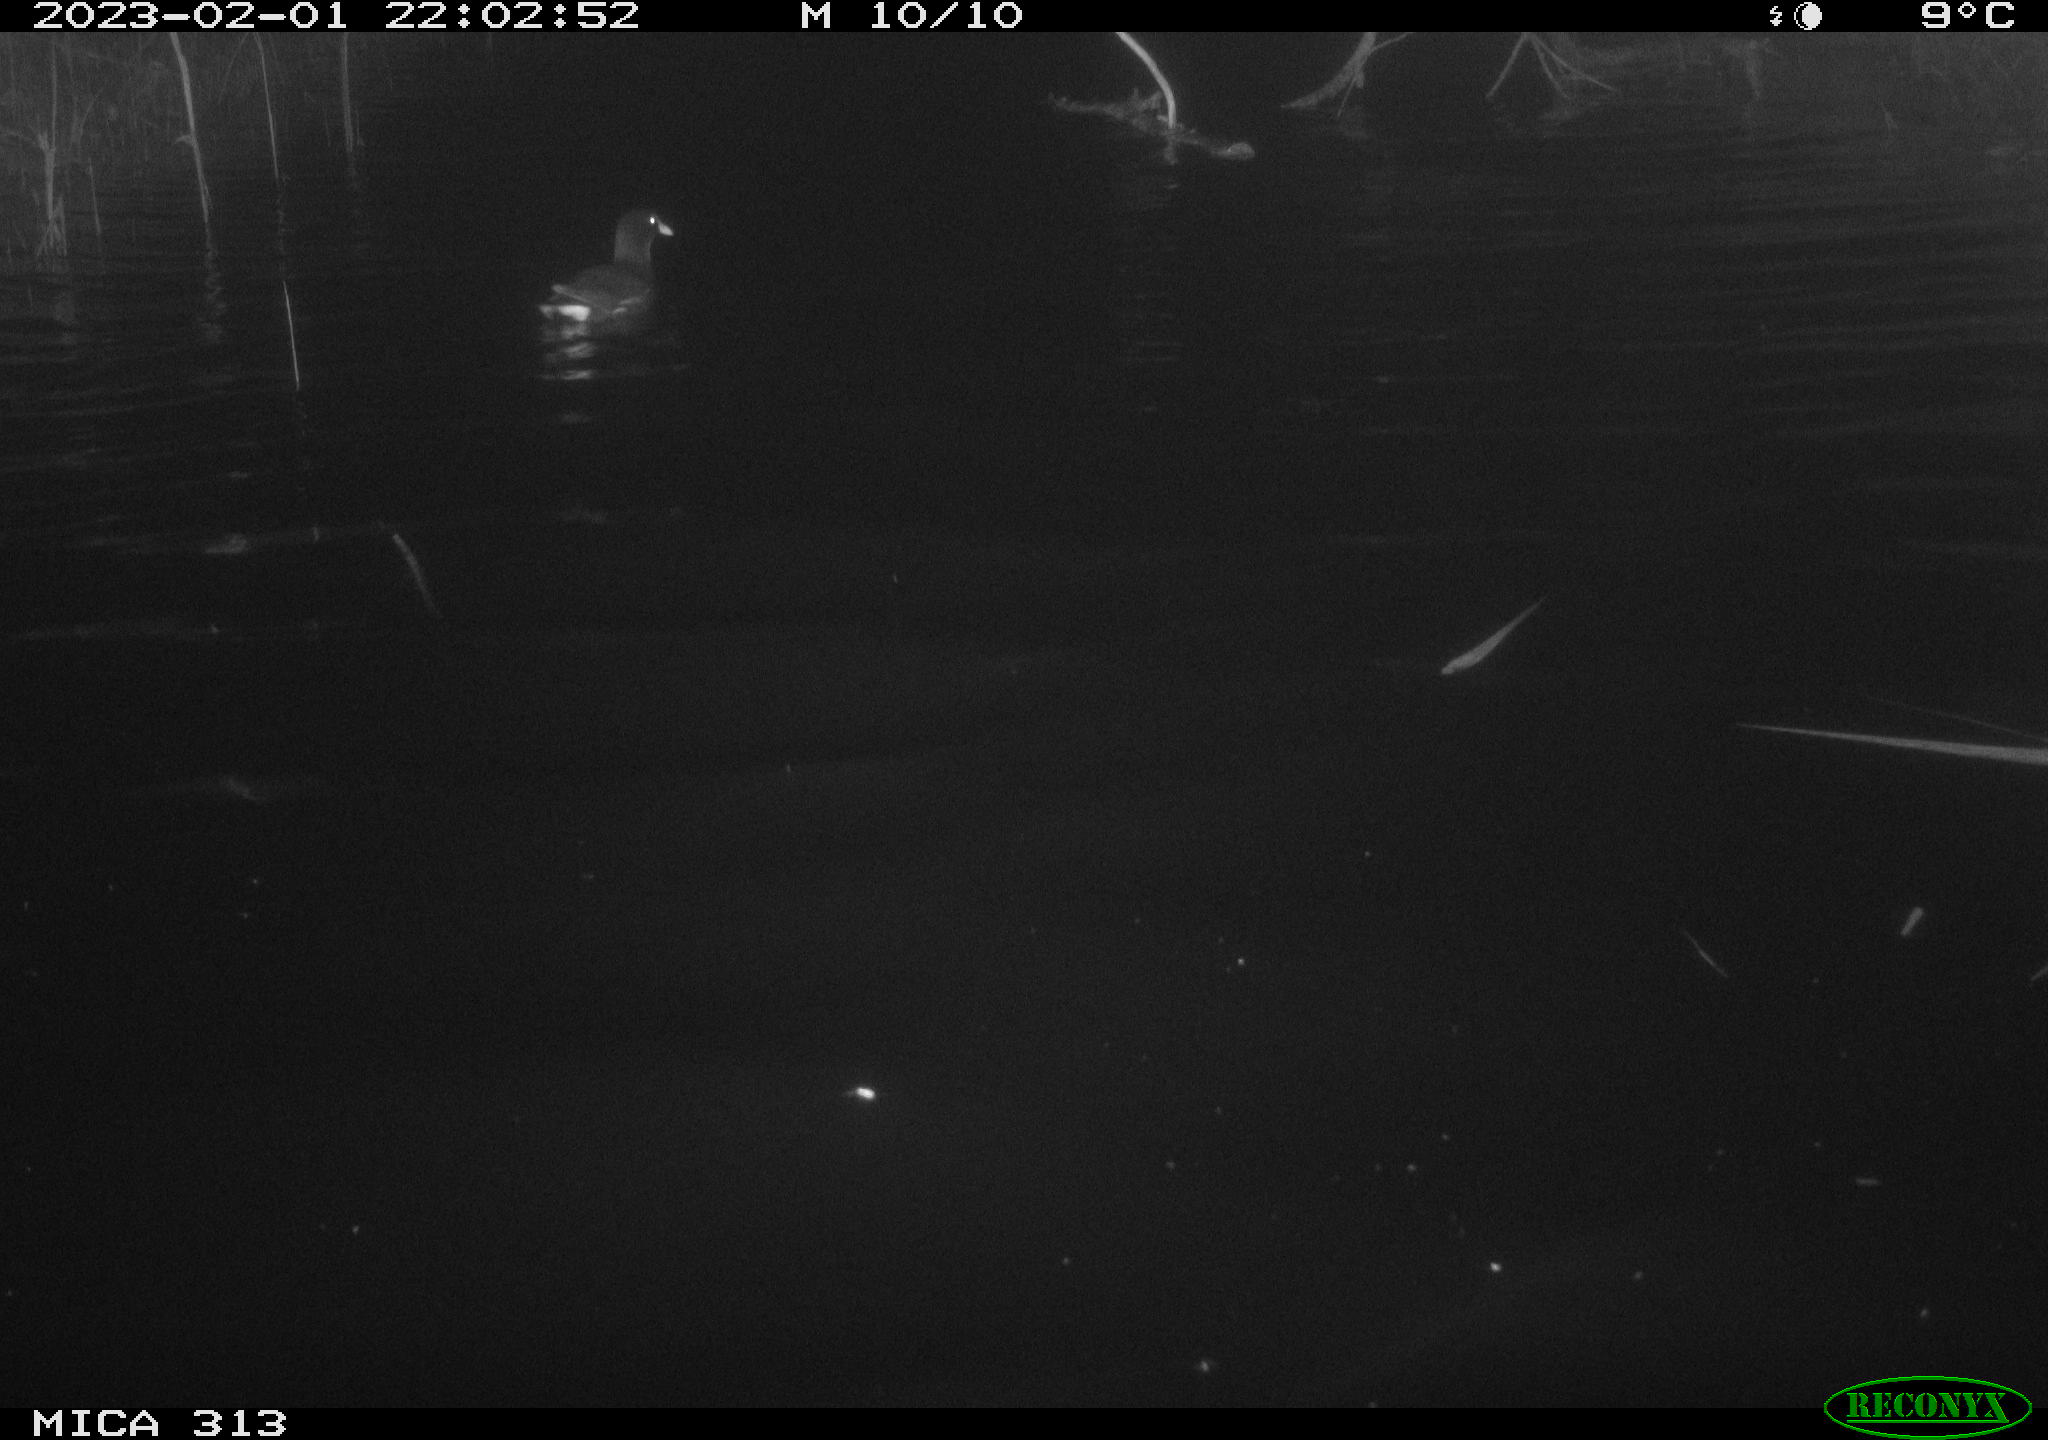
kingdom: Animalia
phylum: Chordata
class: Aves
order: Gruiformes
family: Rallidae
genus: Gallinula
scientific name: Gallinula chloropus
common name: Common moorhen
